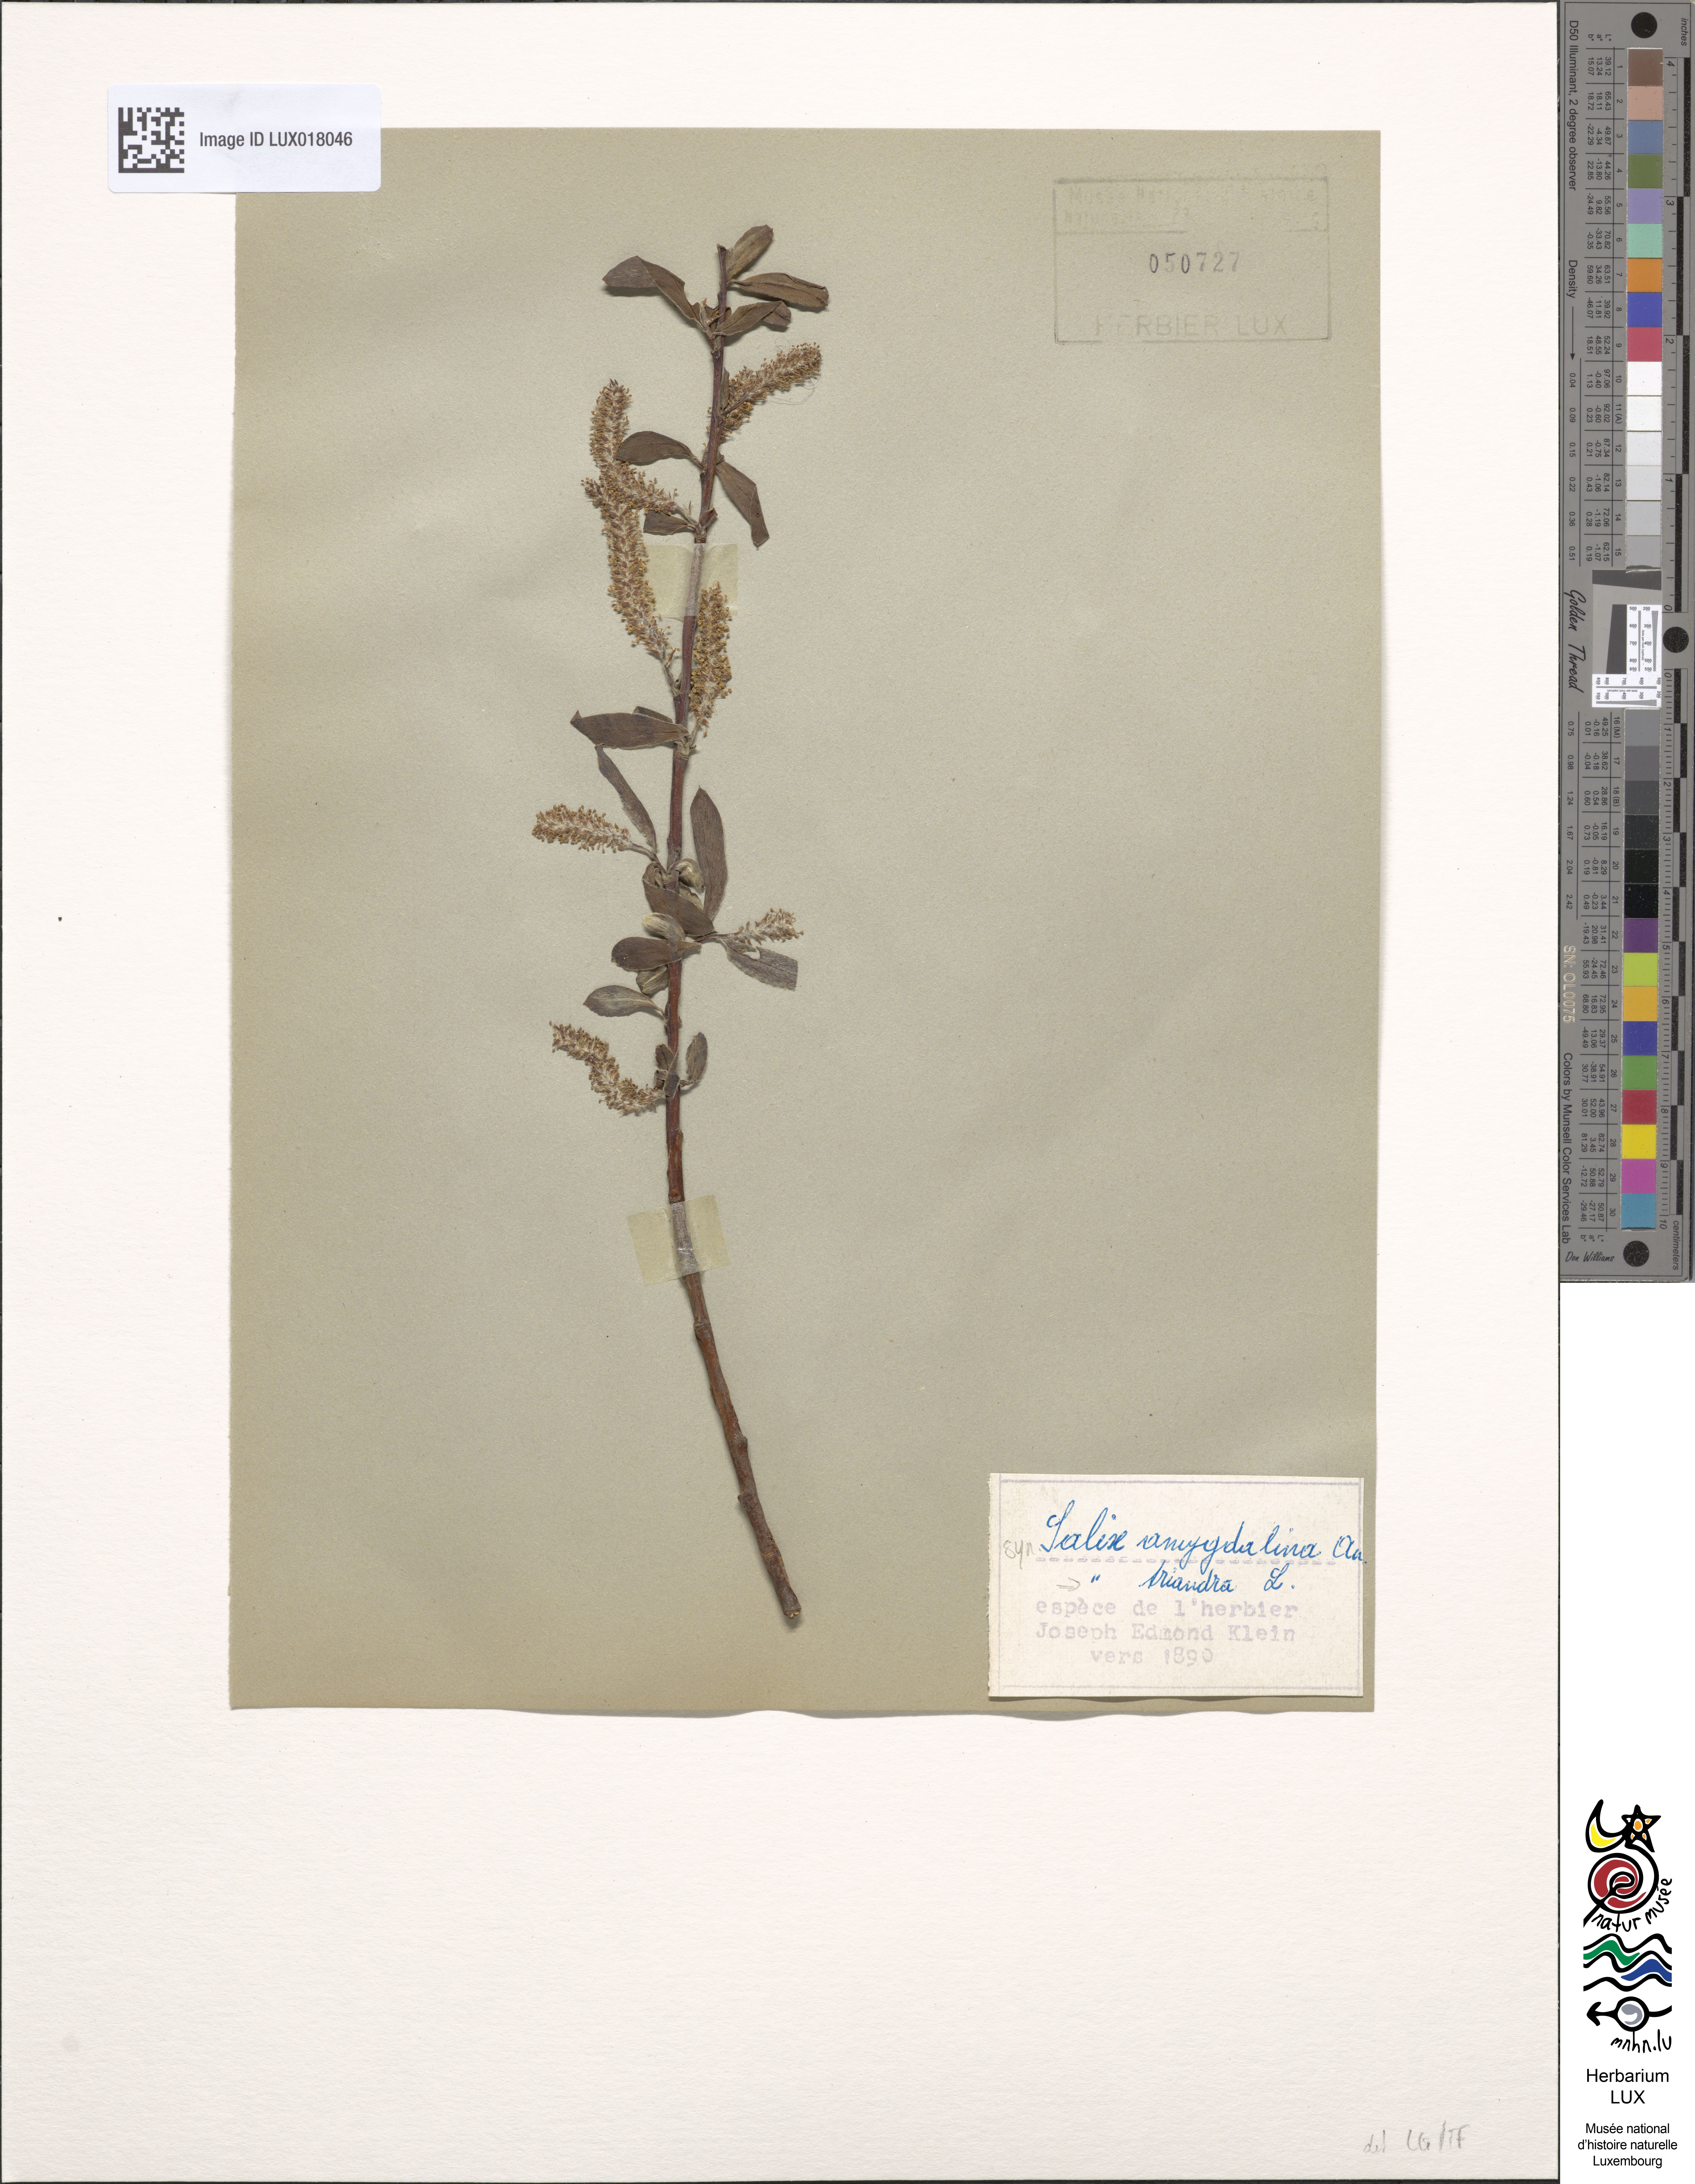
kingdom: Plantae
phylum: Tracheophyta
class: Magnoliopsida
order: Malpighiales
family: Salicaceae
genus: Salix
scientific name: Salix triandra
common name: Almond willow
